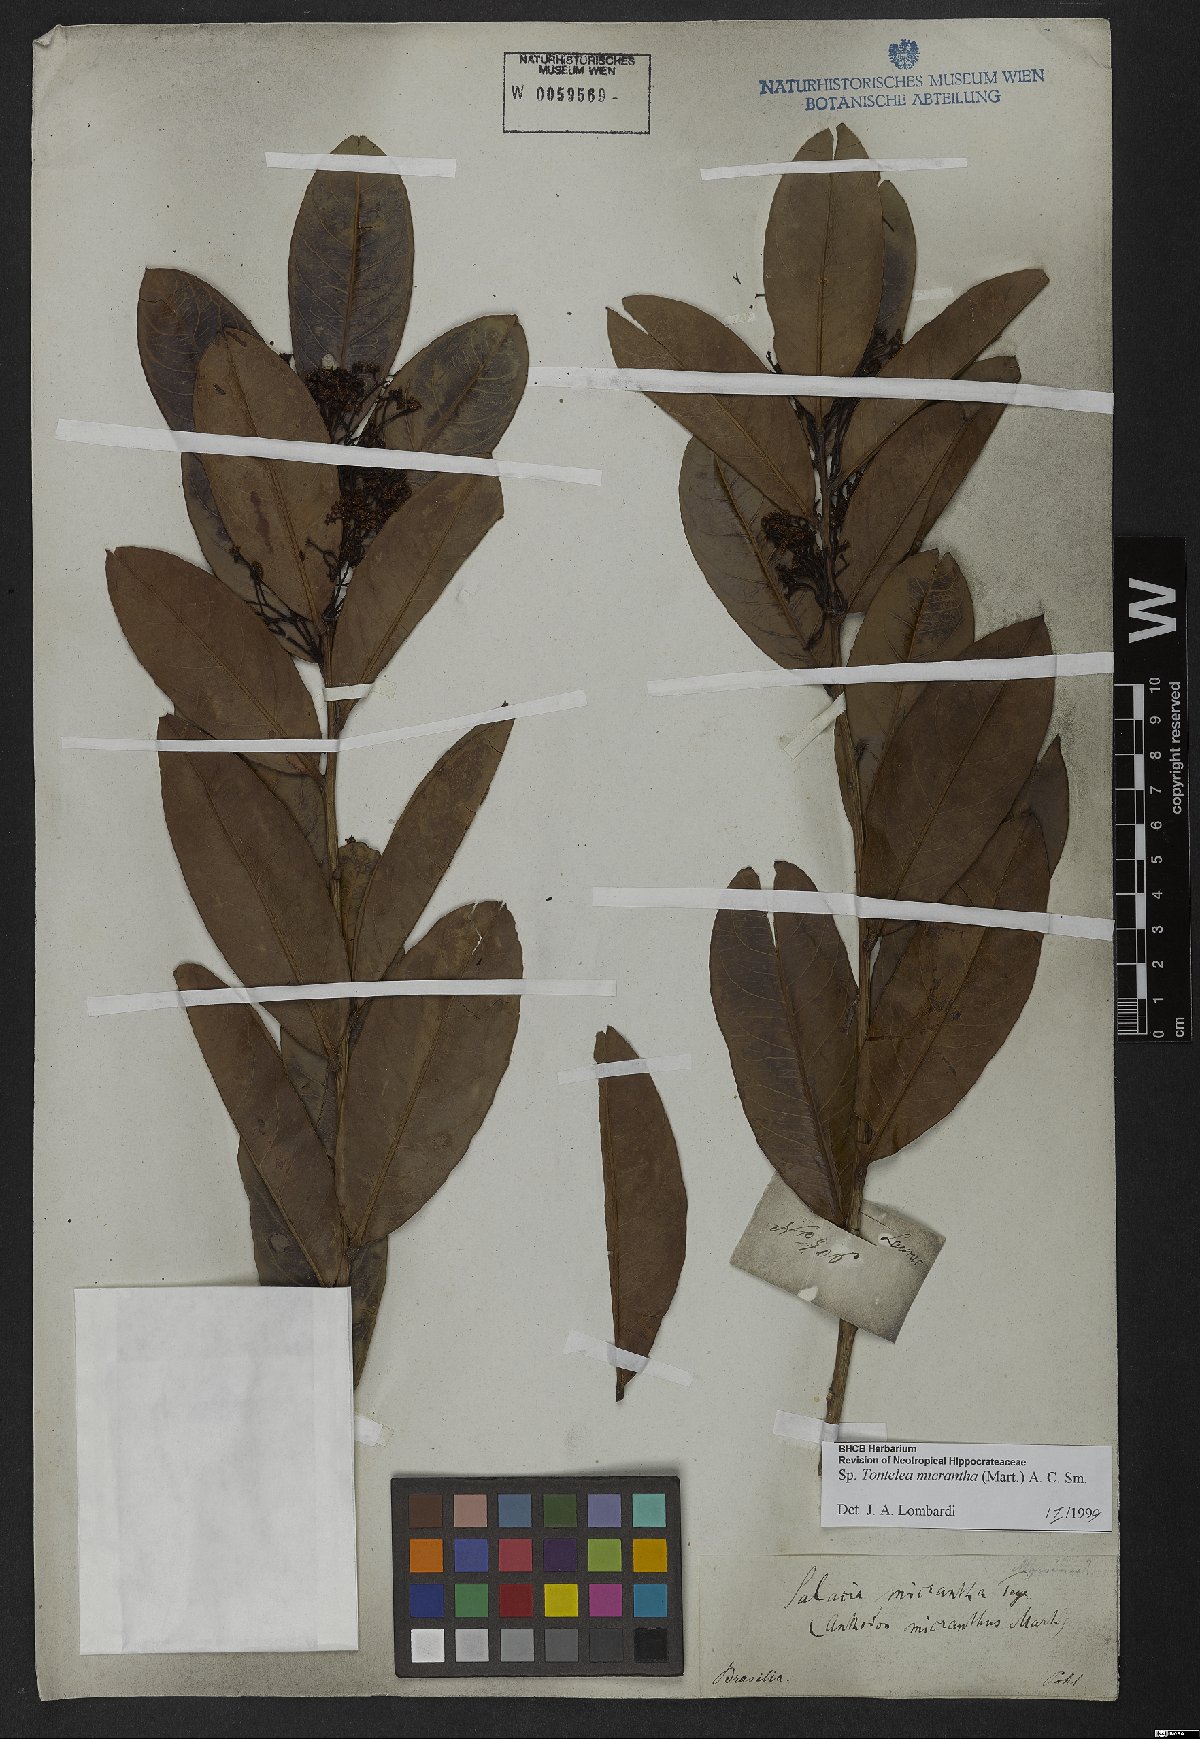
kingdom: Plantae
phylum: Tracheophyta
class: Magnoliopsida
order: Asterales
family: Campanulaceae
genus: Lobelia
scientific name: Lobelia exaltata
